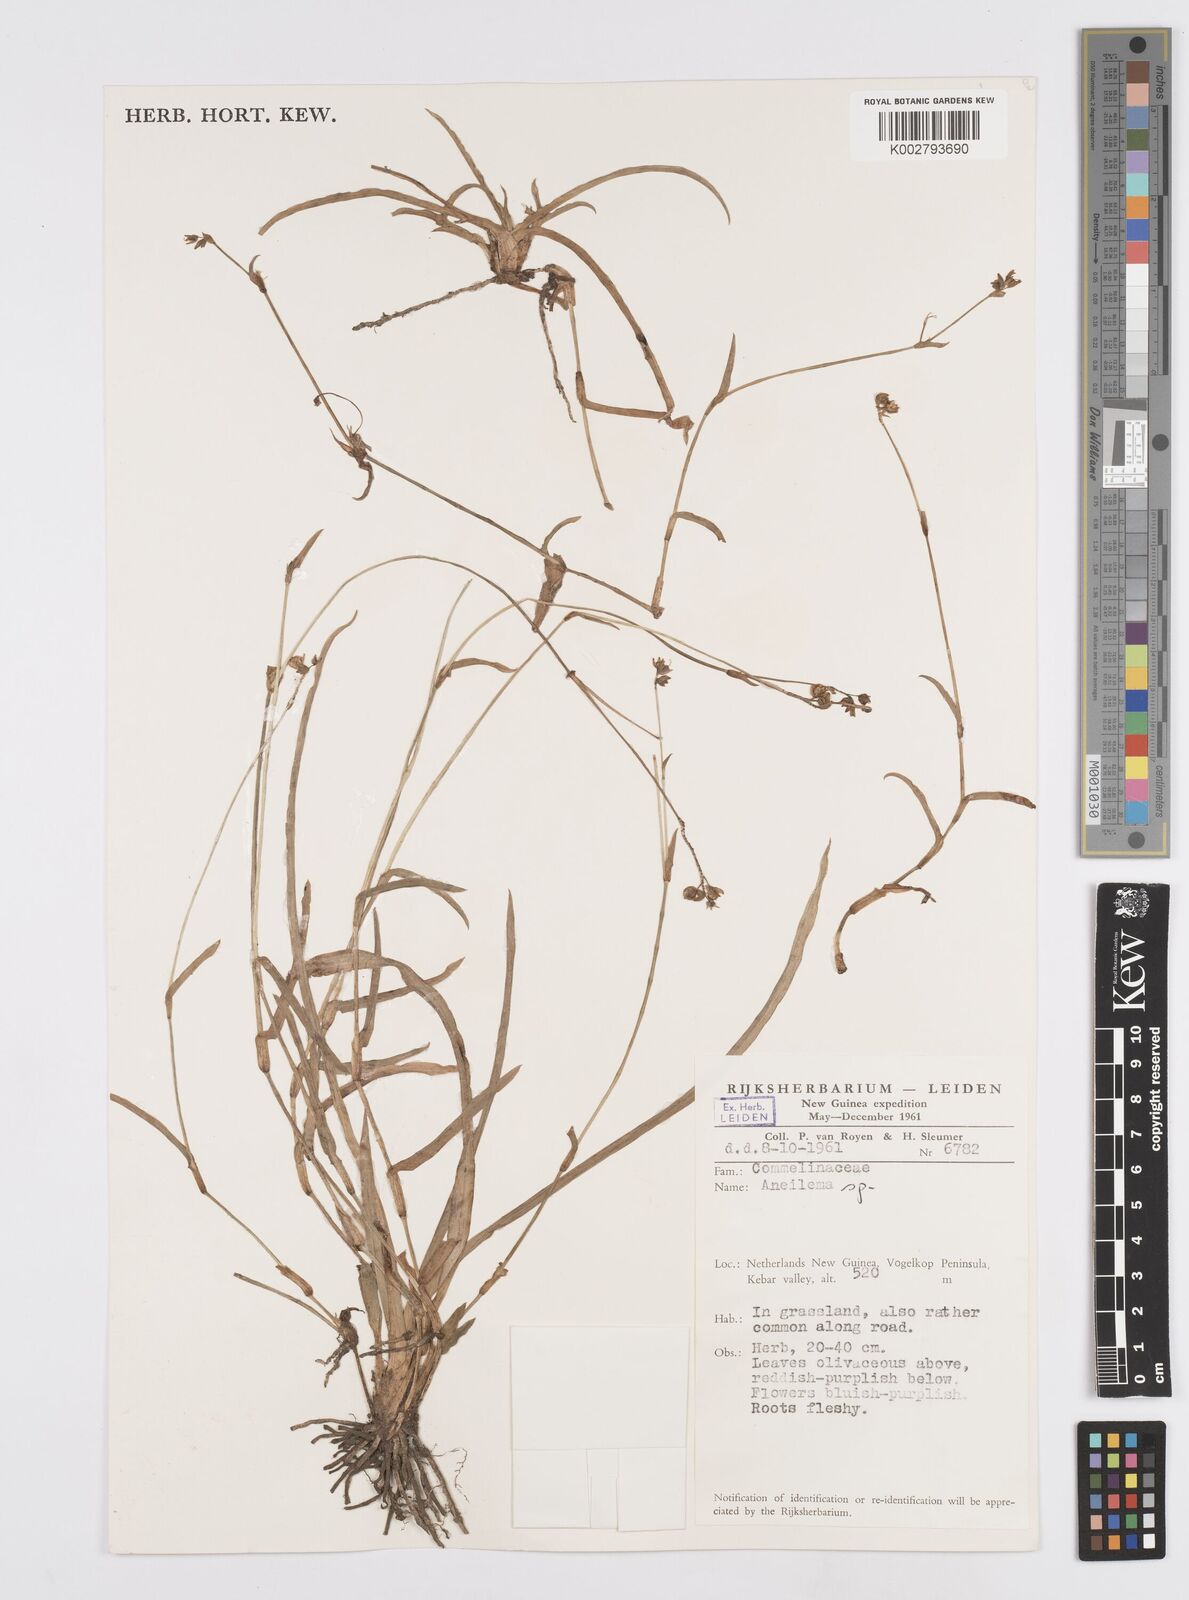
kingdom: Plantae
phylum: Tracheophyta
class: Liliopsida
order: Commelinales
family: Commelinaceae
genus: Murdannia
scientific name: Murdannia
